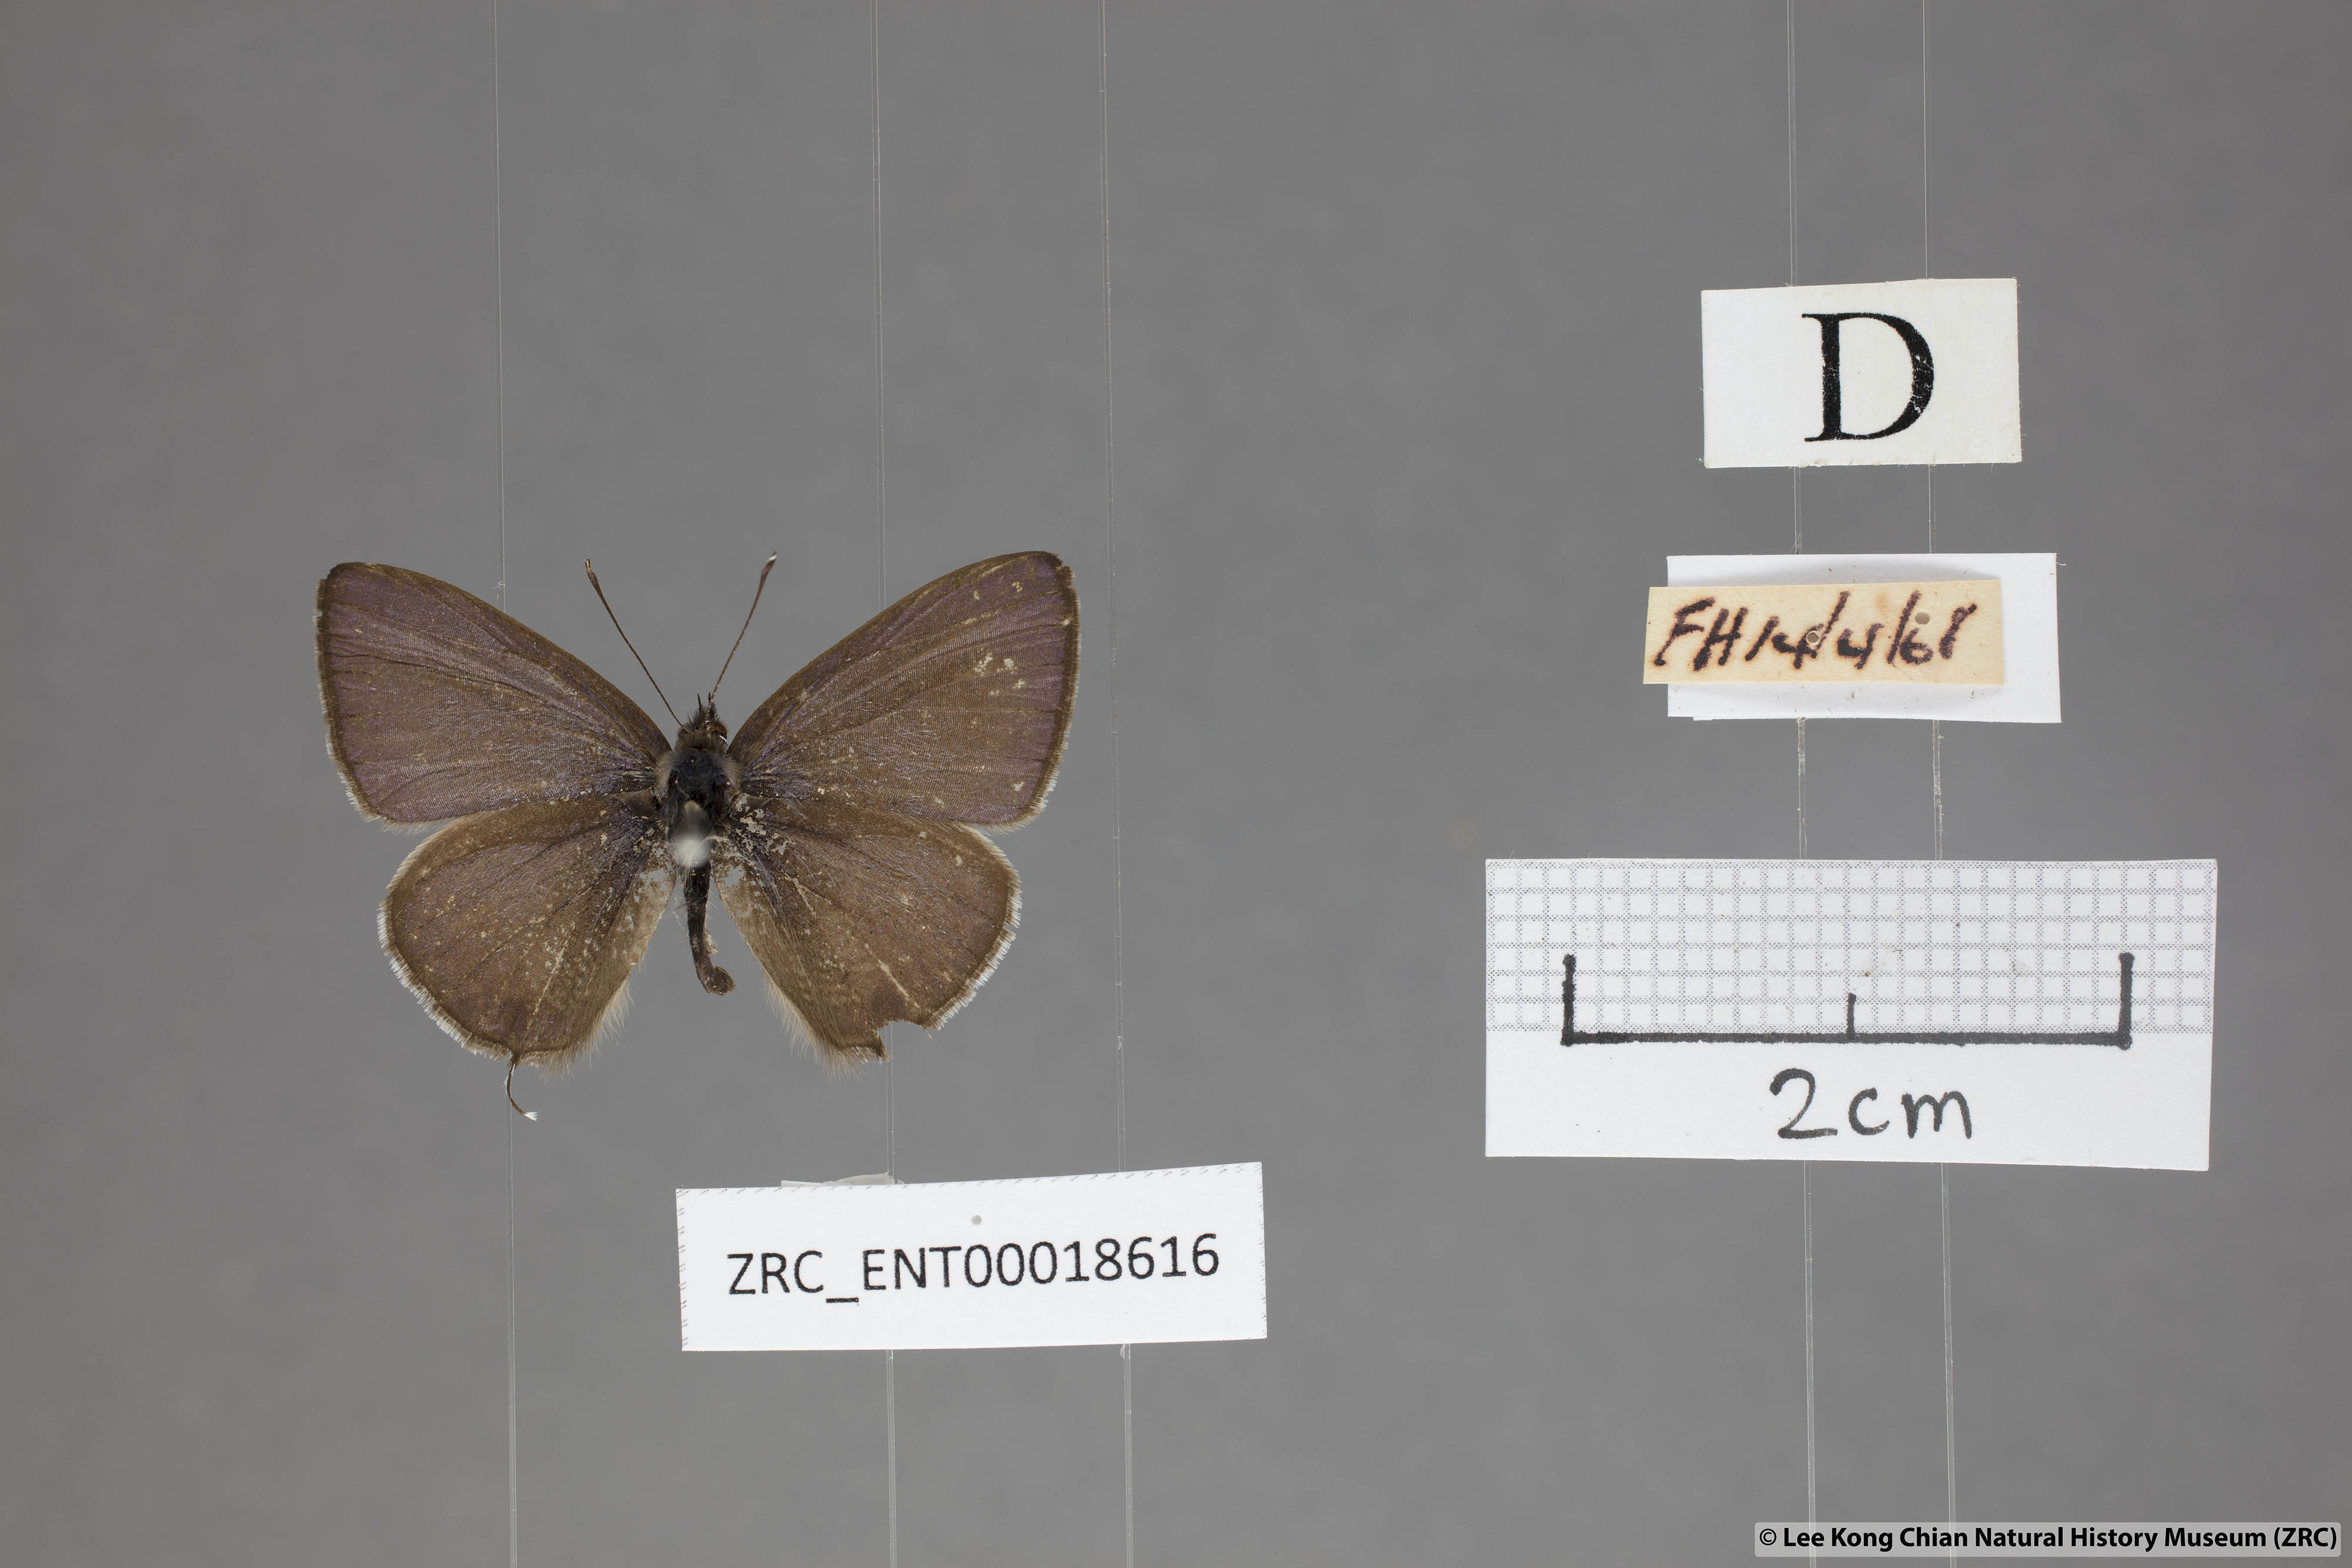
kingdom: Animalia
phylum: Arthropoda
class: Insecta
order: Lepidoptera
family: Lycaenidae
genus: Prosotas
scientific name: Prosotas nelides
